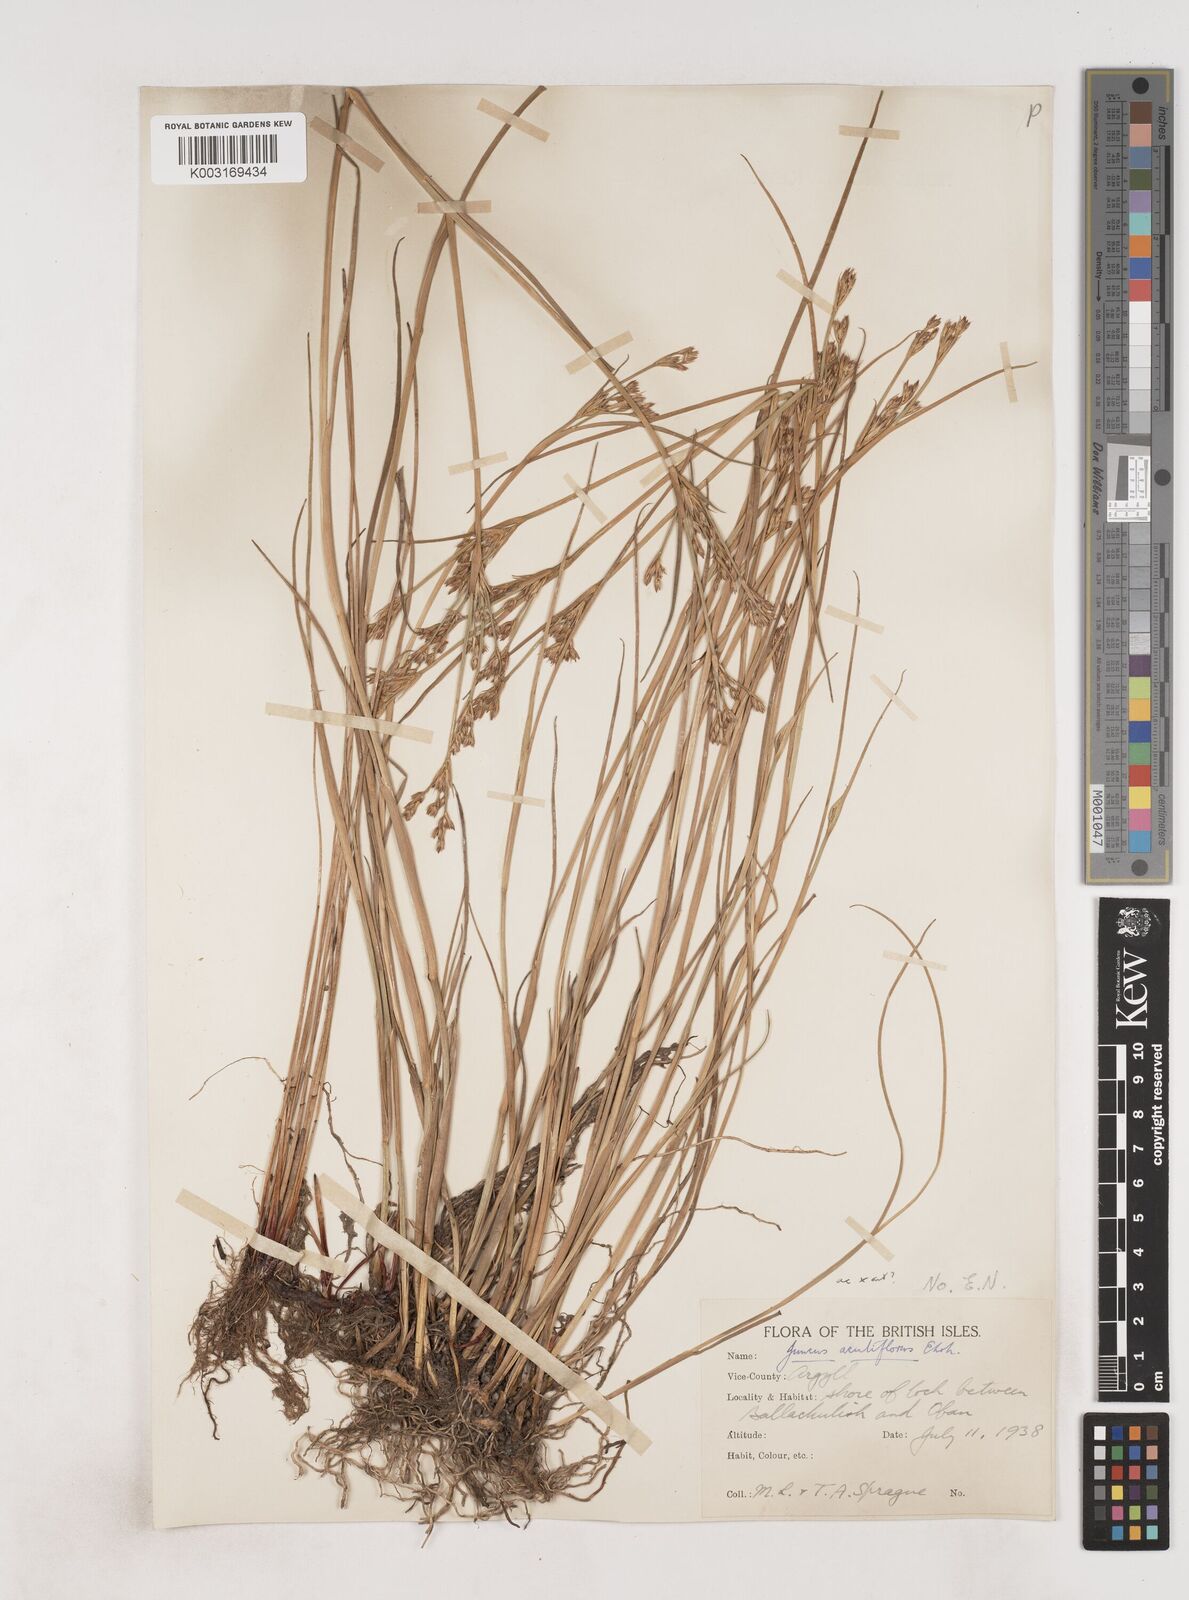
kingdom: Plantae
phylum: Tracheophyta
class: Liliopsida
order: Poales
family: Juncaceae
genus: Juncus
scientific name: Juncus acutiflorus
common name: Sharp-flowered rush
